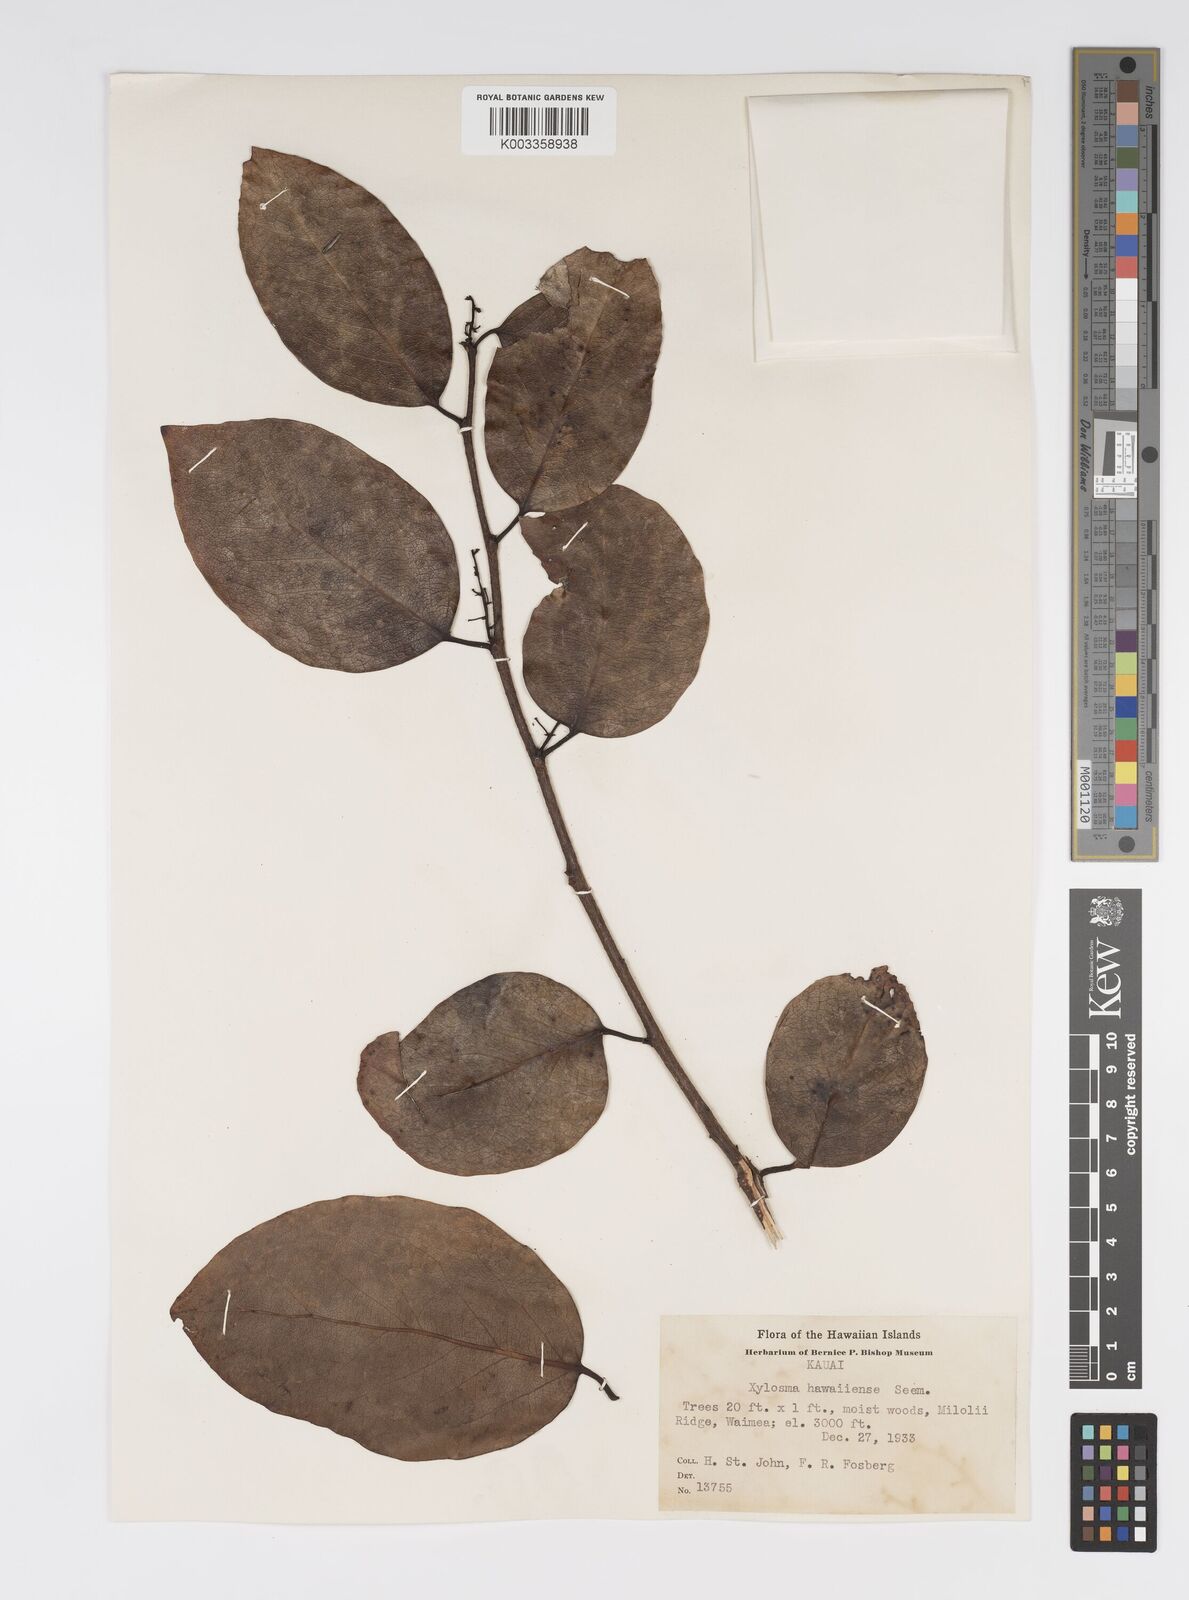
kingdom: Plantae
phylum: Tracheophyta
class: Magnoliopsida
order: Malpighiales
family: Salicaceae
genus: Xylosma
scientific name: Xylosma hawaiense
